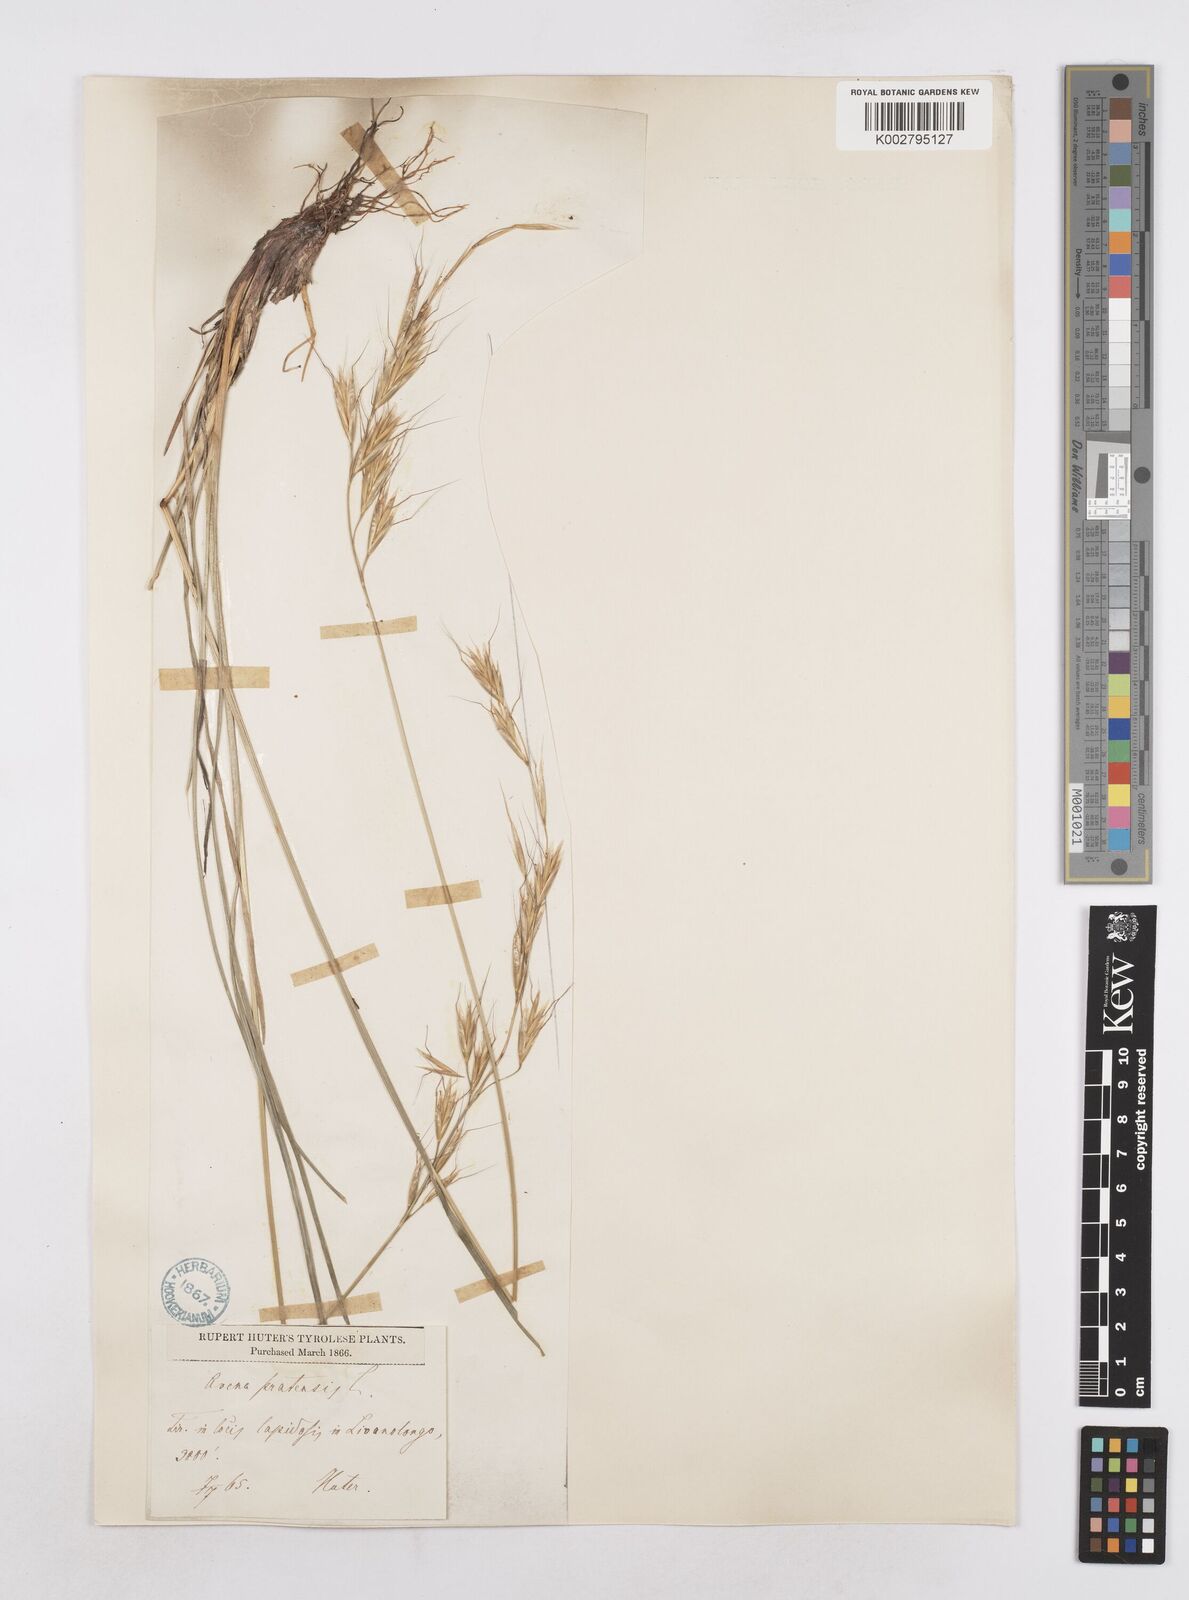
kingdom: Plantae
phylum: Tracheophyta
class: Liliopsida
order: Poales
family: Poaceae
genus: Helictochloa
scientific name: Helictochloa pratensis
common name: Meadow oat grass
